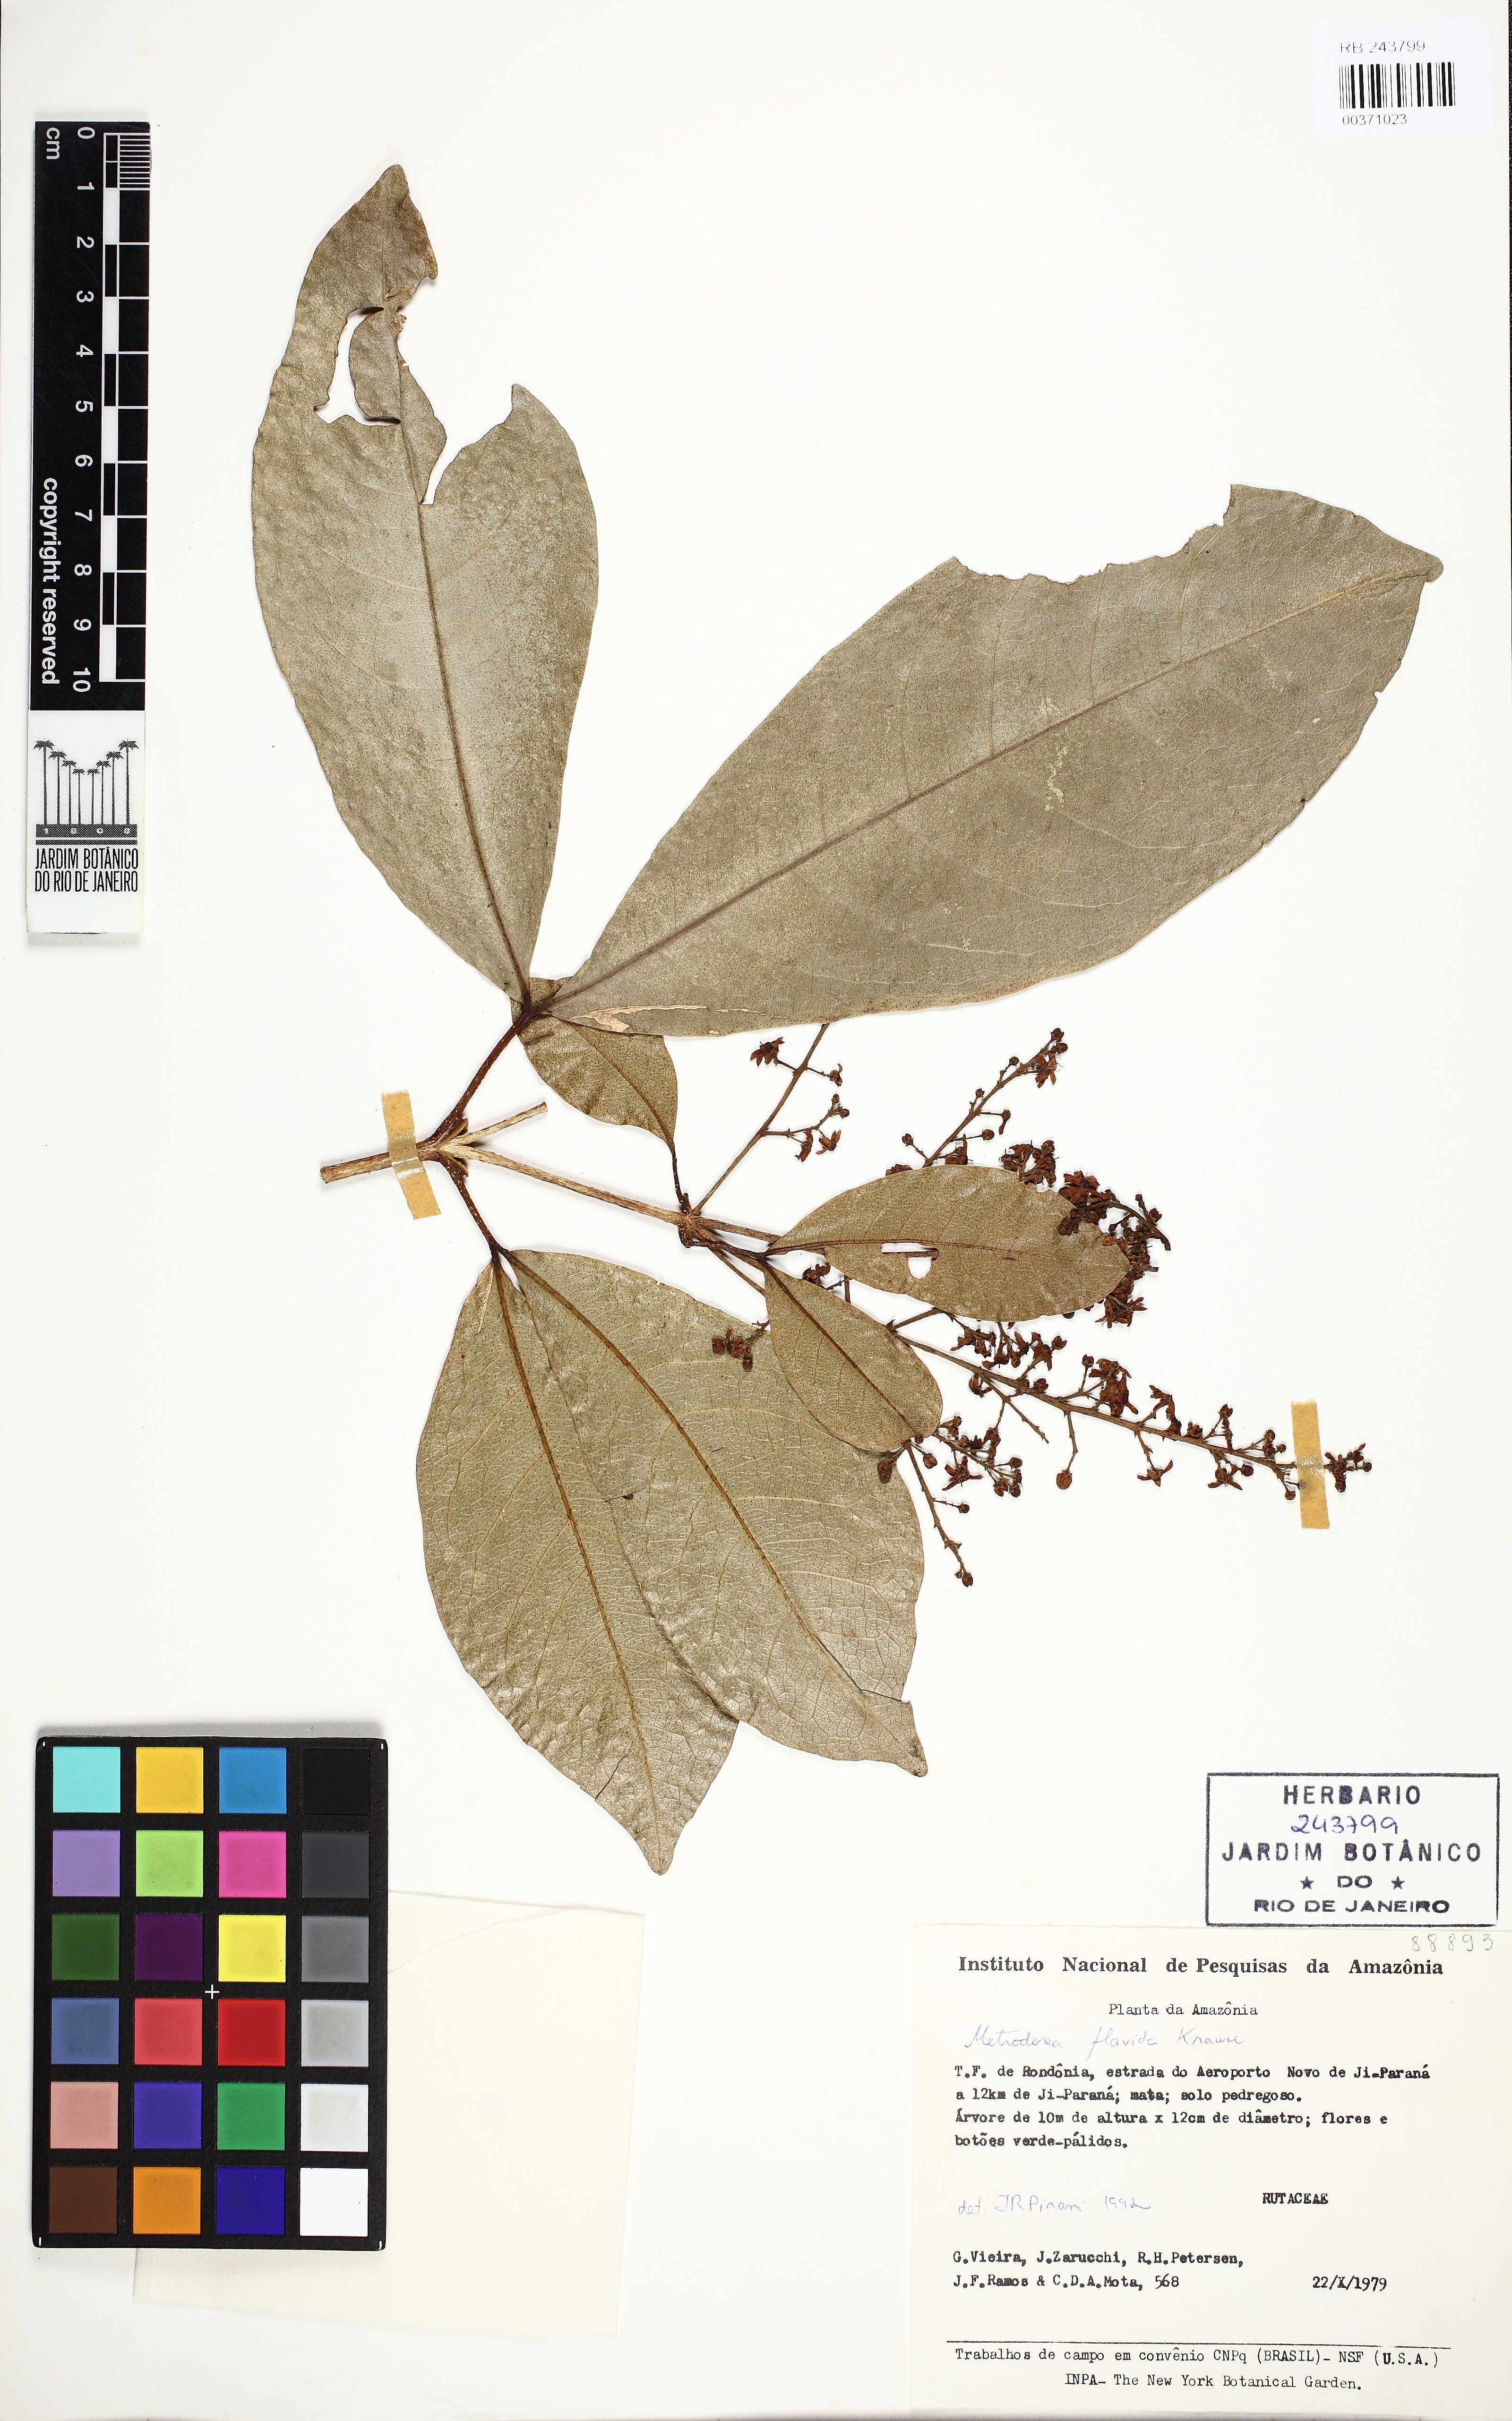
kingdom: Plantae
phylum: Tracheophyta
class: Magnoliopsida
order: Sapindales
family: Rutaceae
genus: Metrodorea
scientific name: Metrodorea flavida
